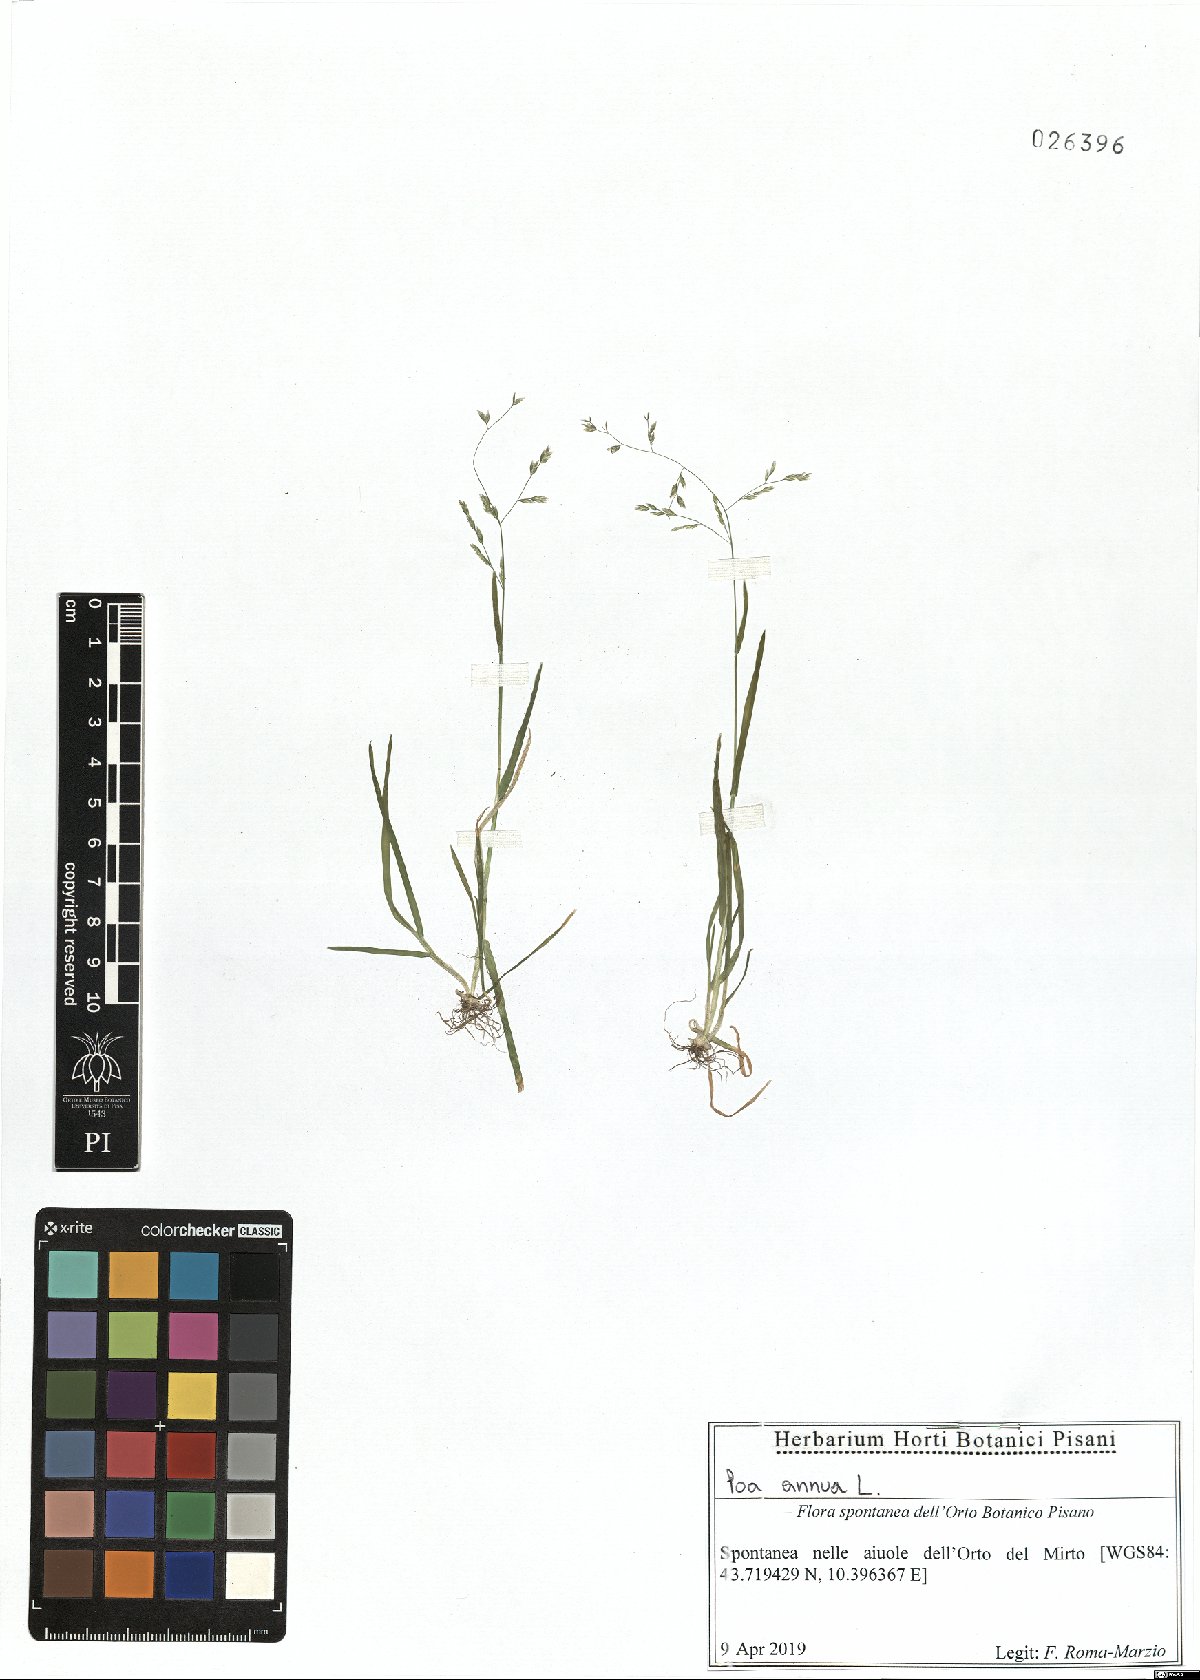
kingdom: Plantae
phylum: Tracheophyta
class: Liliopsida
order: Poales
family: Poaceae
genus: Poa
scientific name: Poa annua
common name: Annual bluegrass
